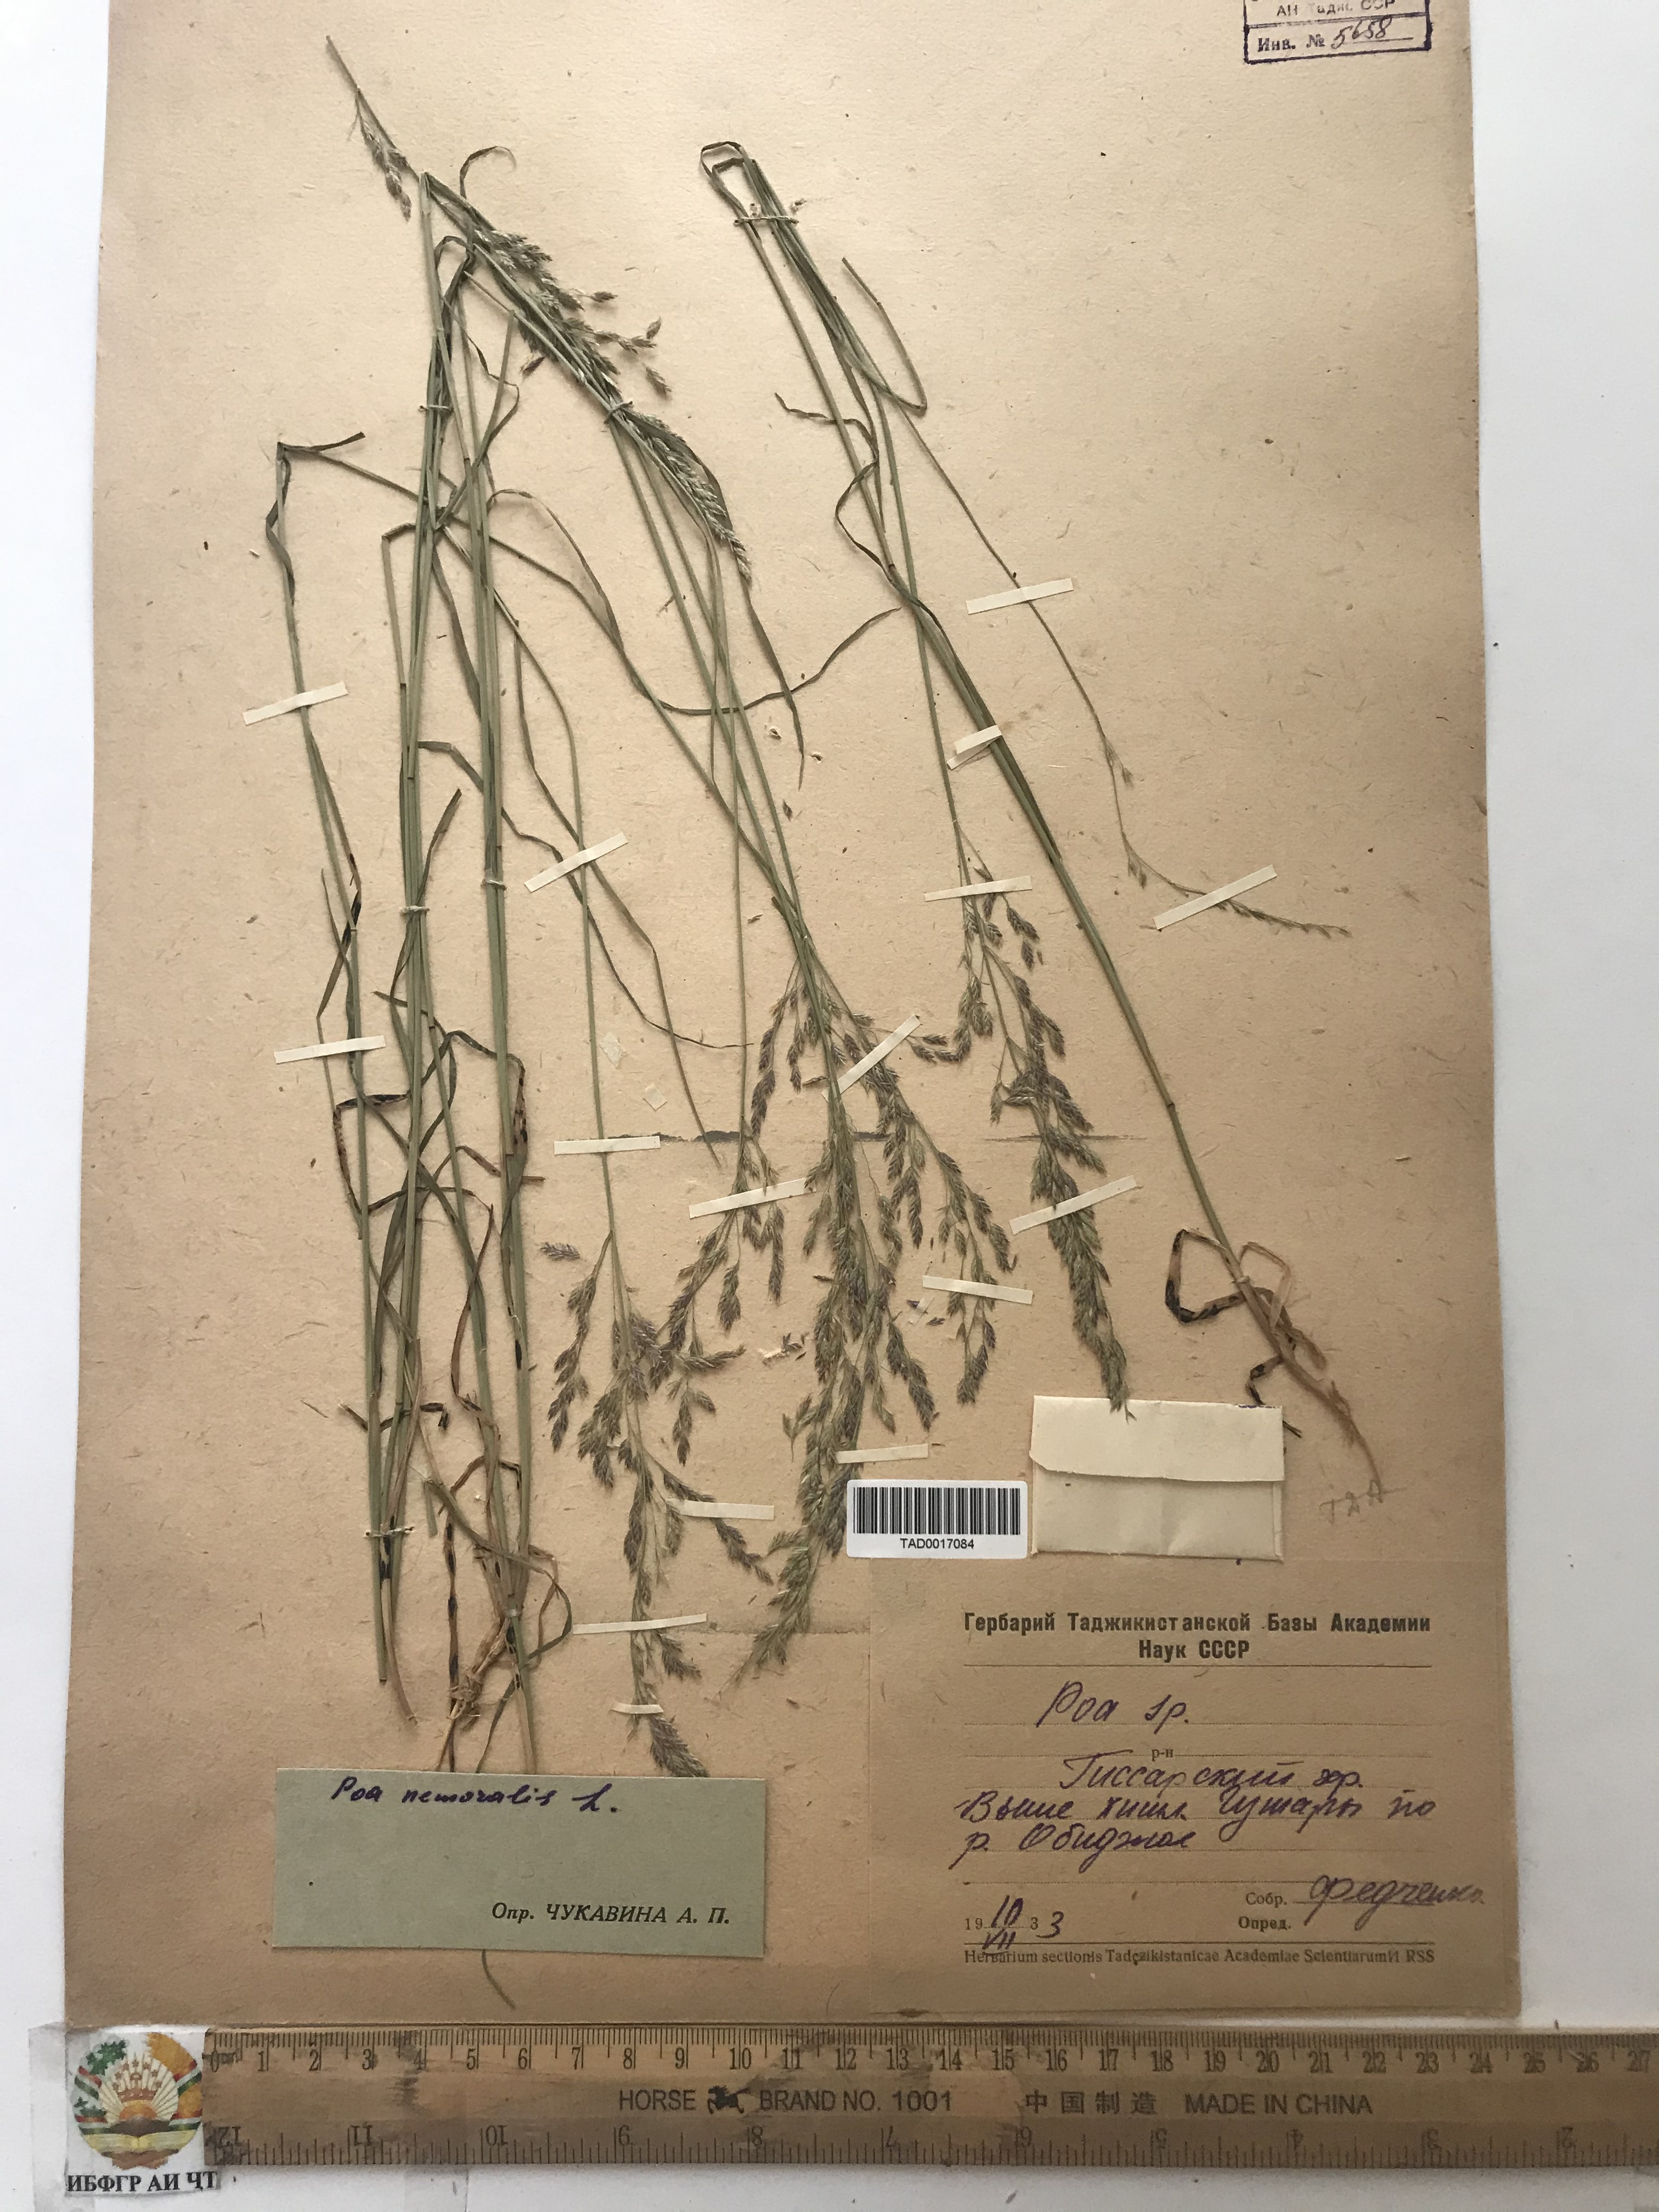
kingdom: Plantae
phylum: Tracheophyta
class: Liliopsida
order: Poales
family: Poaceae
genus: Poa
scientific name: Poa nemoralis
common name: Wood bluegrass
